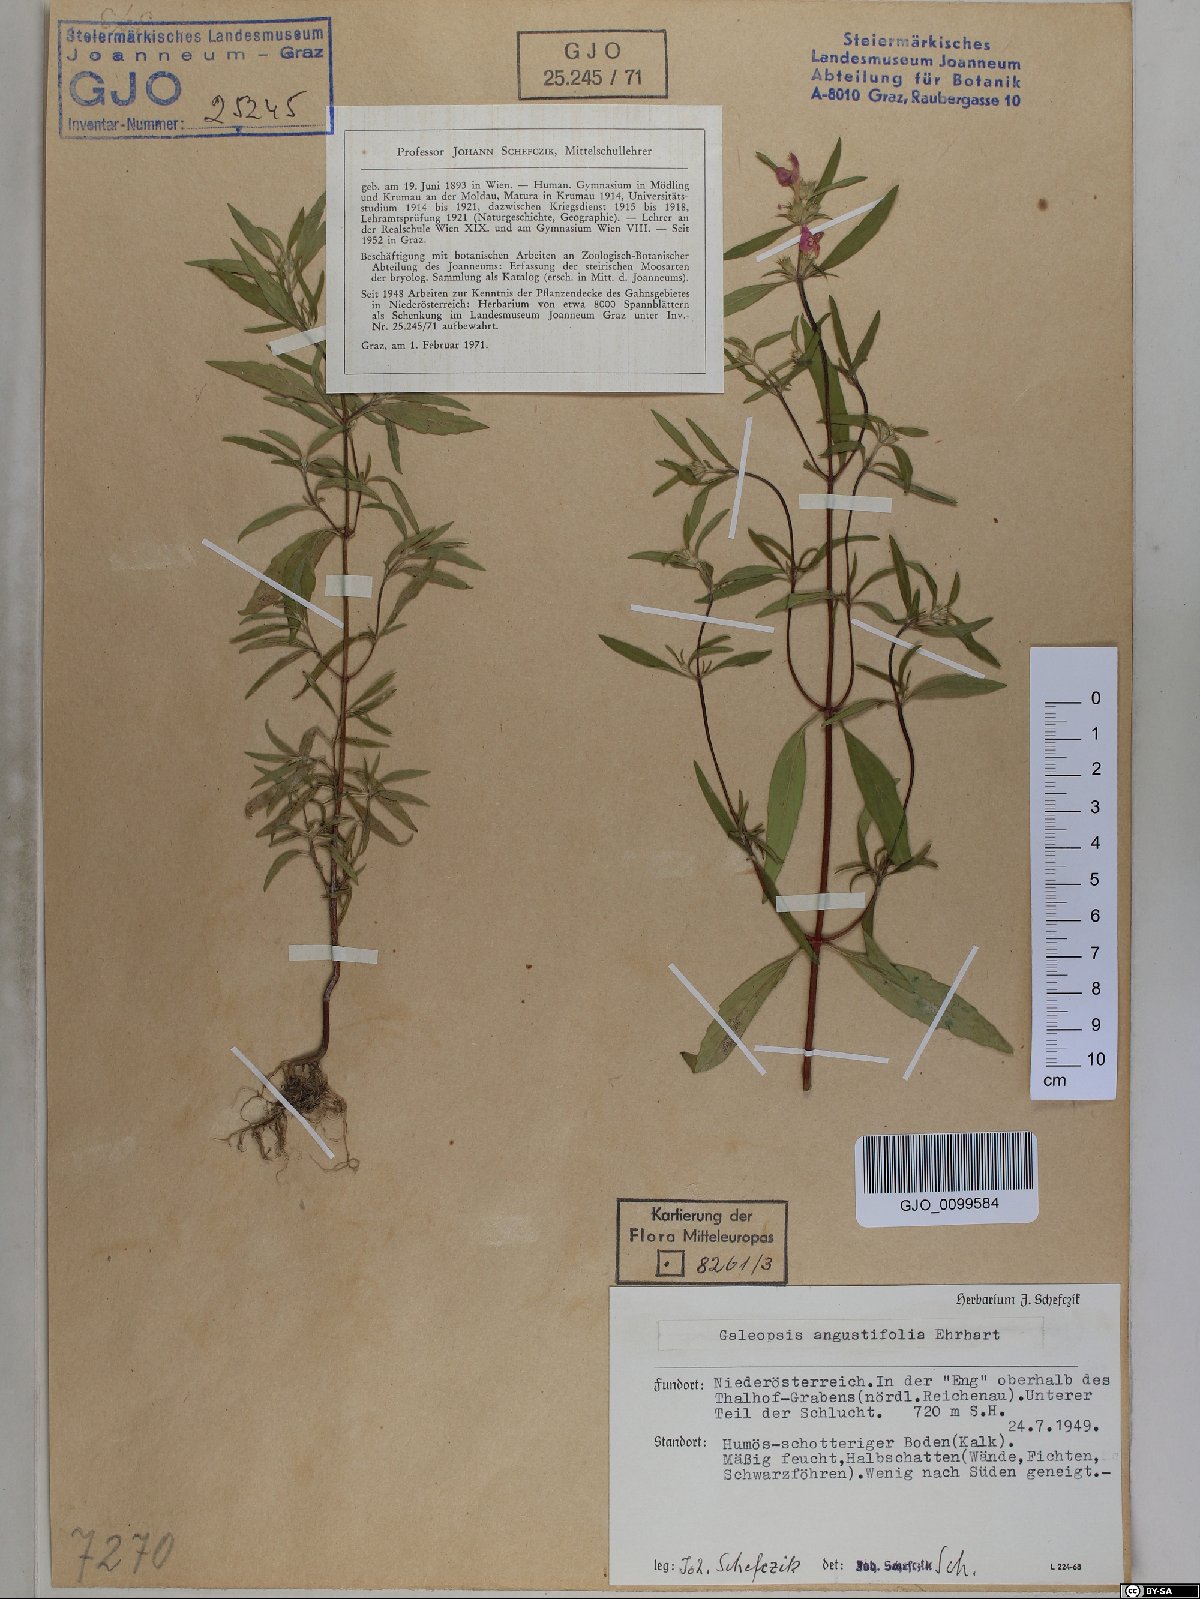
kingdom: Plantae
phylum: Tracheophyta
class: Magnoliopsida
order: Lamiales
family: Lamiaceae
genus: Galeopsis
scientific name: Galeopsis angustifolia
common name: Red hemp-nettle
